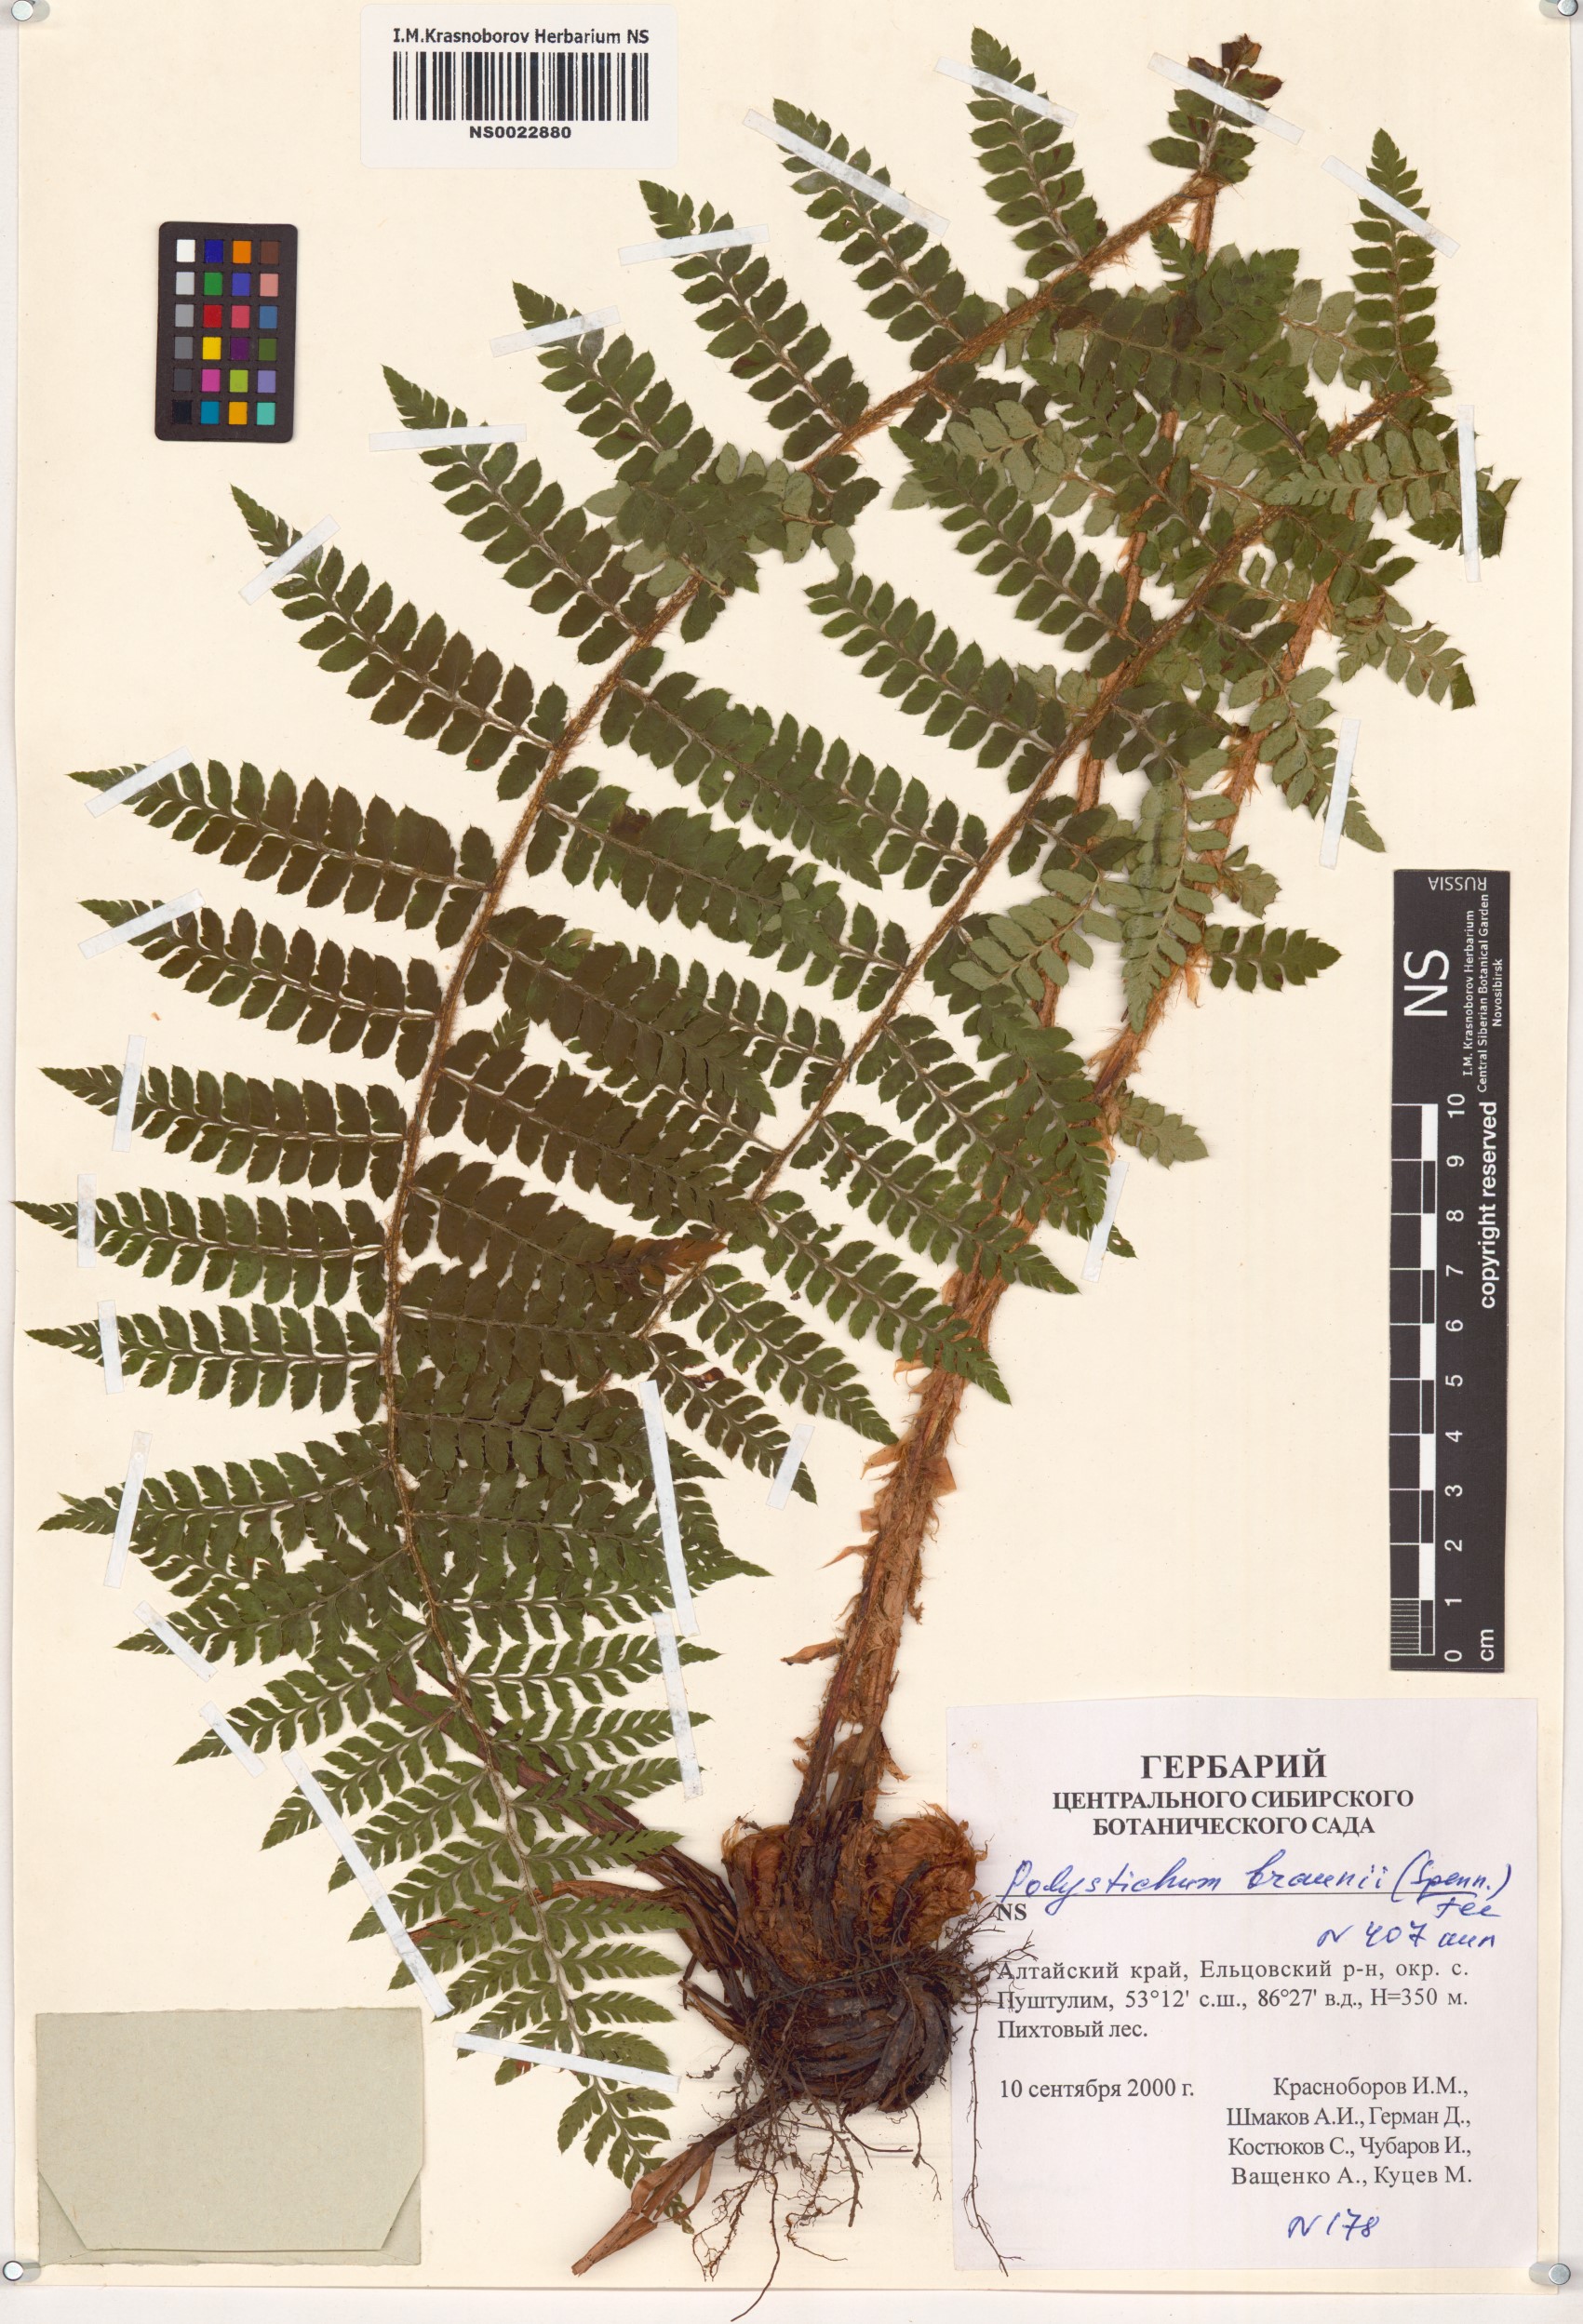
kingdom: Plantae
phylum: Tracheophyta
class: Polypodiopsida
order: Polypodiales
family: Dryopteridaceae
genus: Polystichum
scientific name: Polystichum braunii
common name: Braun's holly fern
